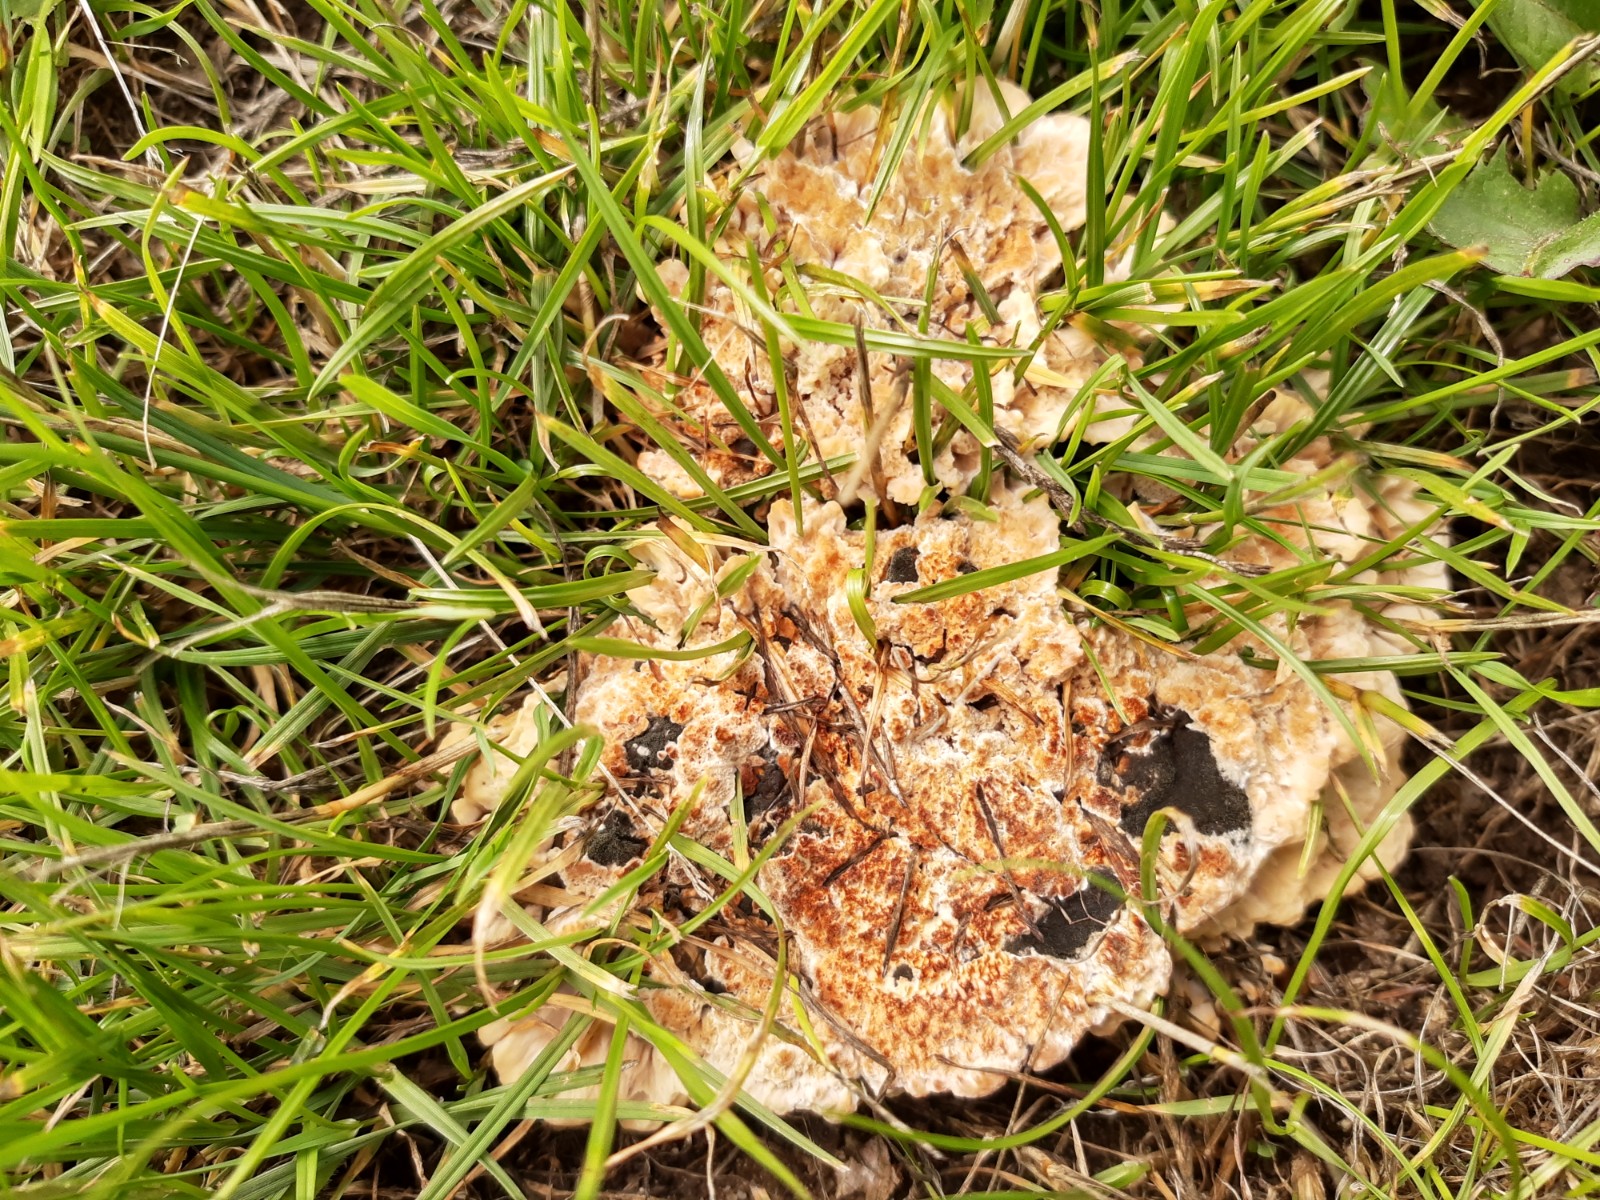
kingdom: Fungi
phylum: Basidiomycota
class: Agaricomycetes
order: Polyporales
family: Podoscyphaceae
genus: Abortiporus
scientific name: Abortiporus biennis
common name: rødmende pjalteporesvamp
